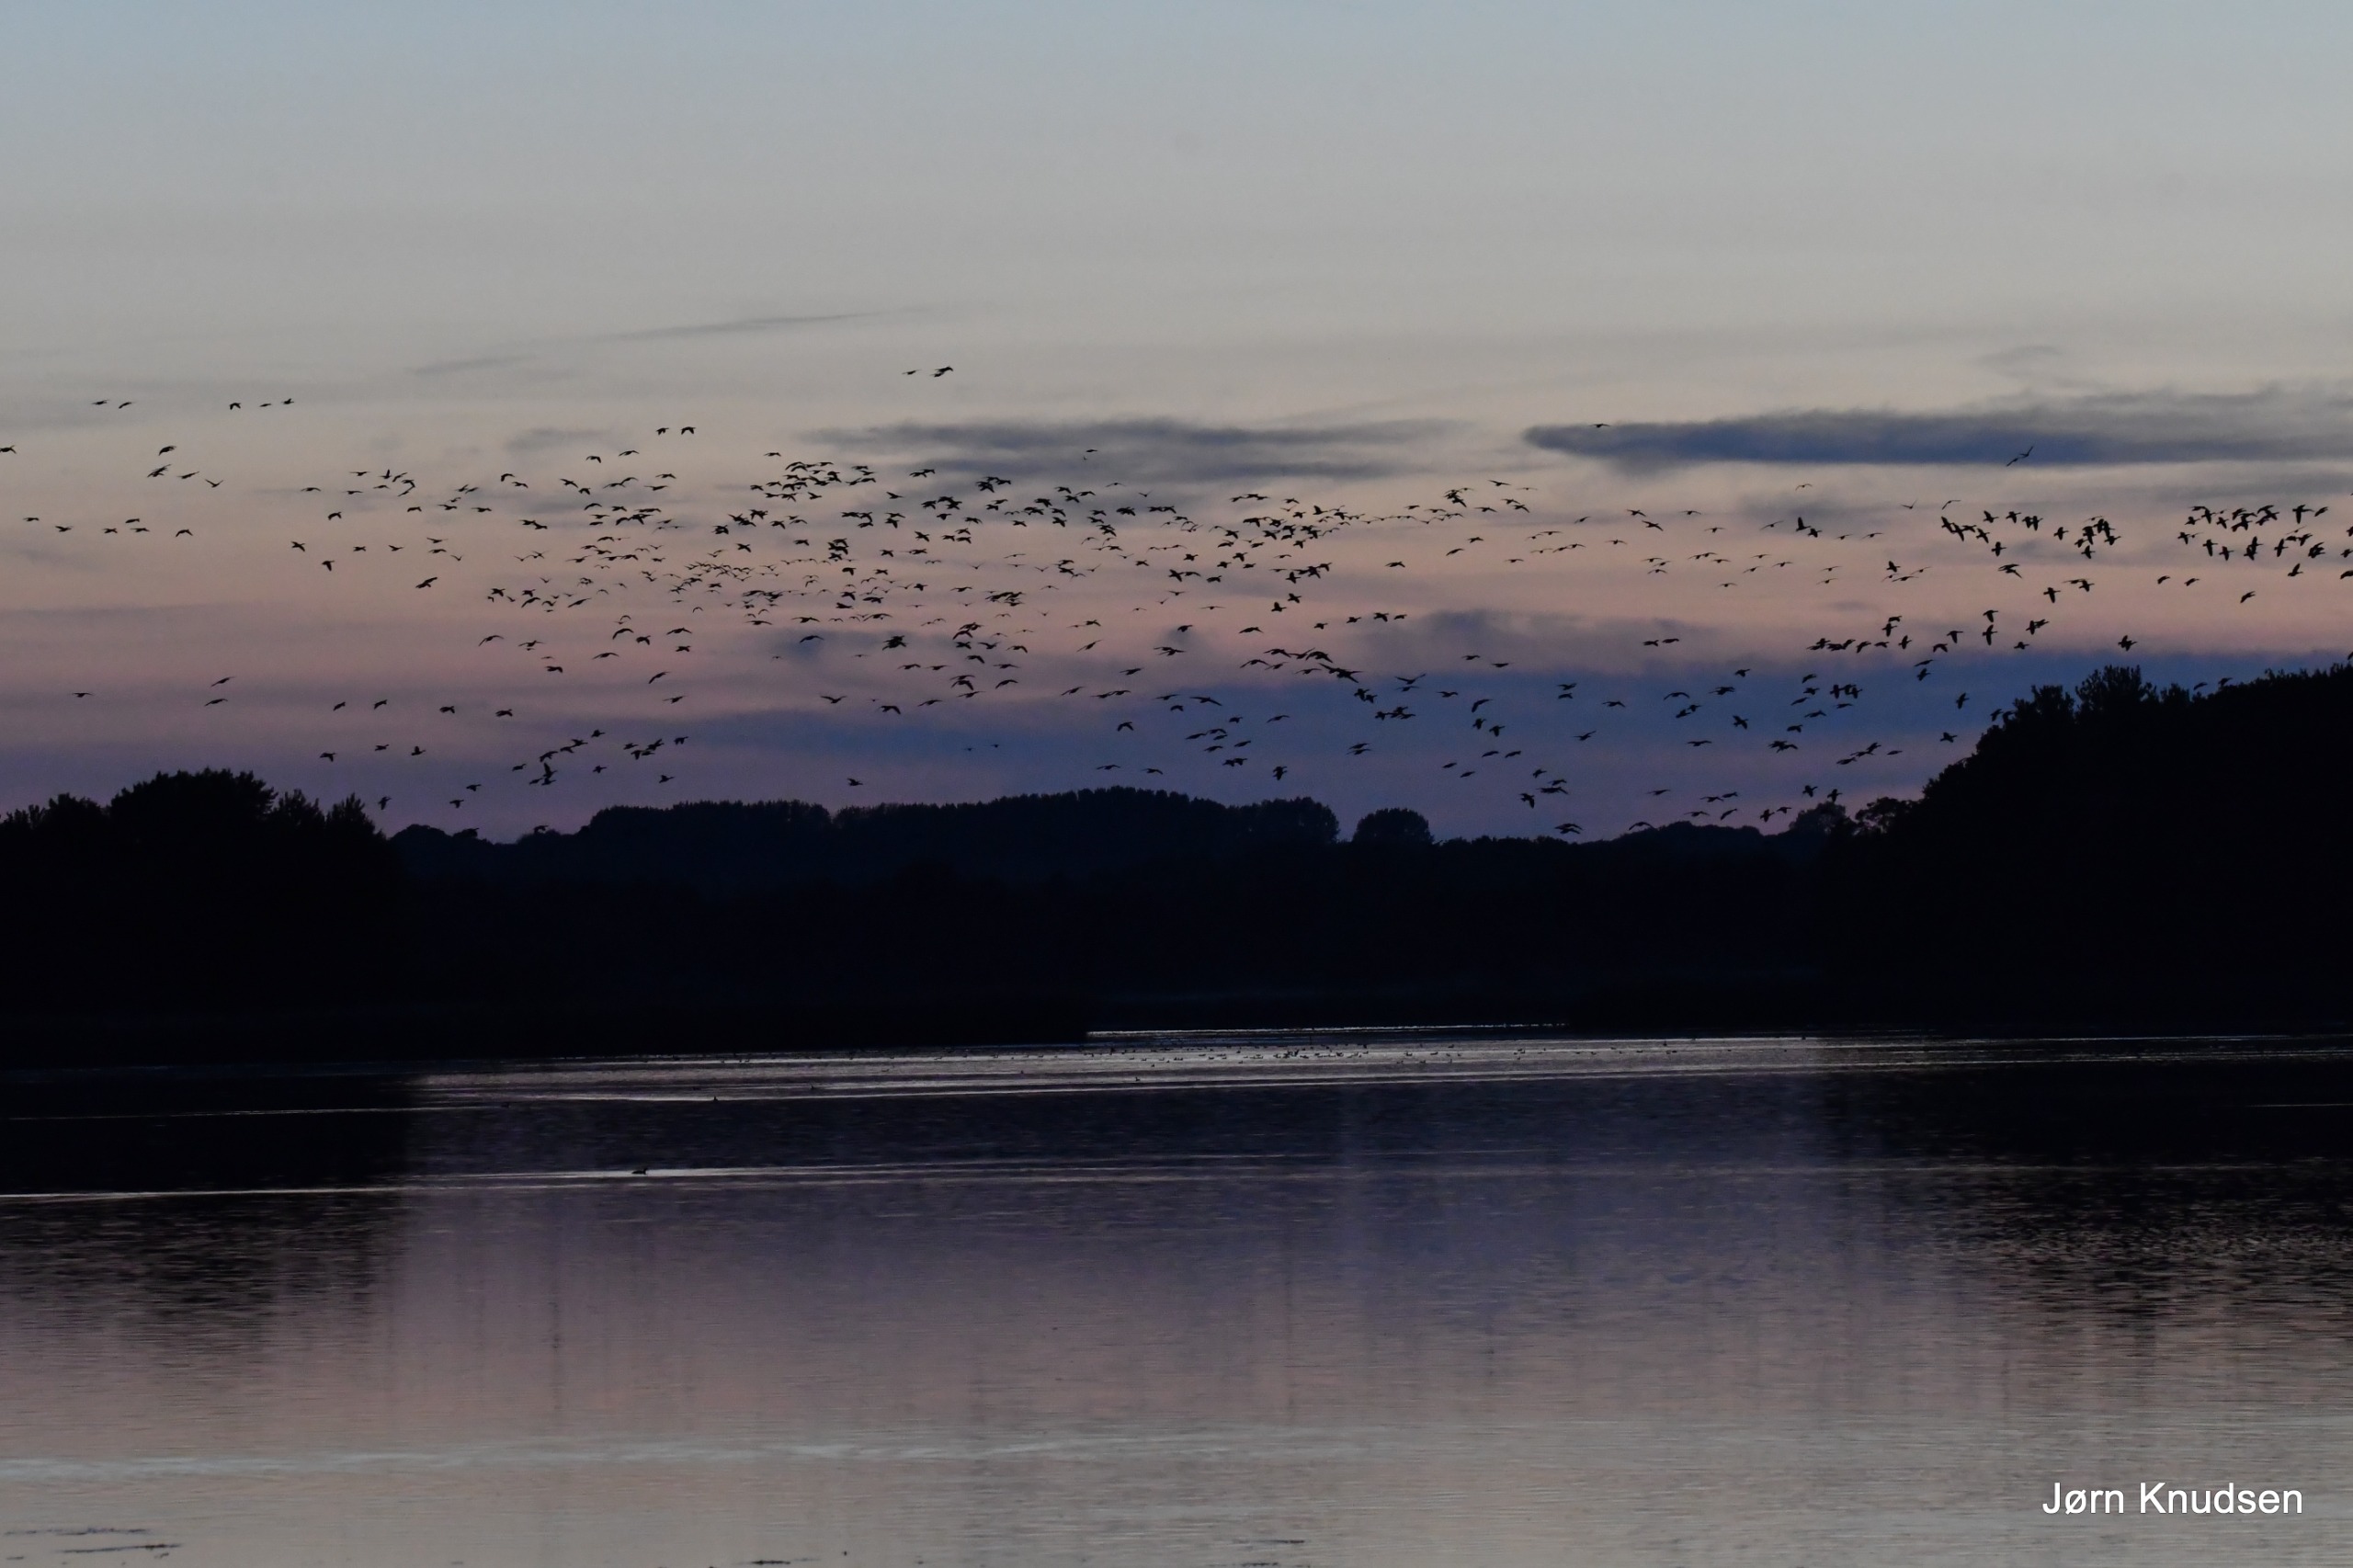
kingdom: Animalia
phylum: Chordata
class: Aves
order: Anseriformes
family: Anatidae
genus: Anser
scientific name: Anser anser
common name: Grågås
